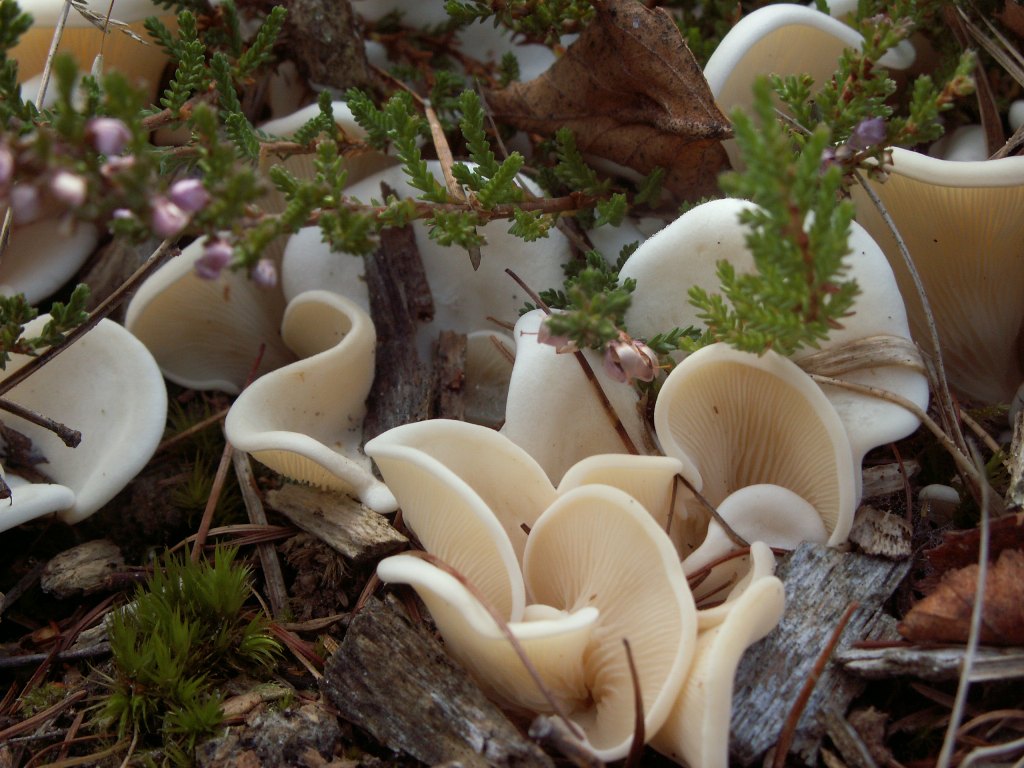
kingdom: Fungi
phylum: Basidiomycota
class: Agaricomycetes
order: Agaricales
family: Marasmiaceae
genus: Pleurocybella
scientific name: Pleurocybella porrigens
